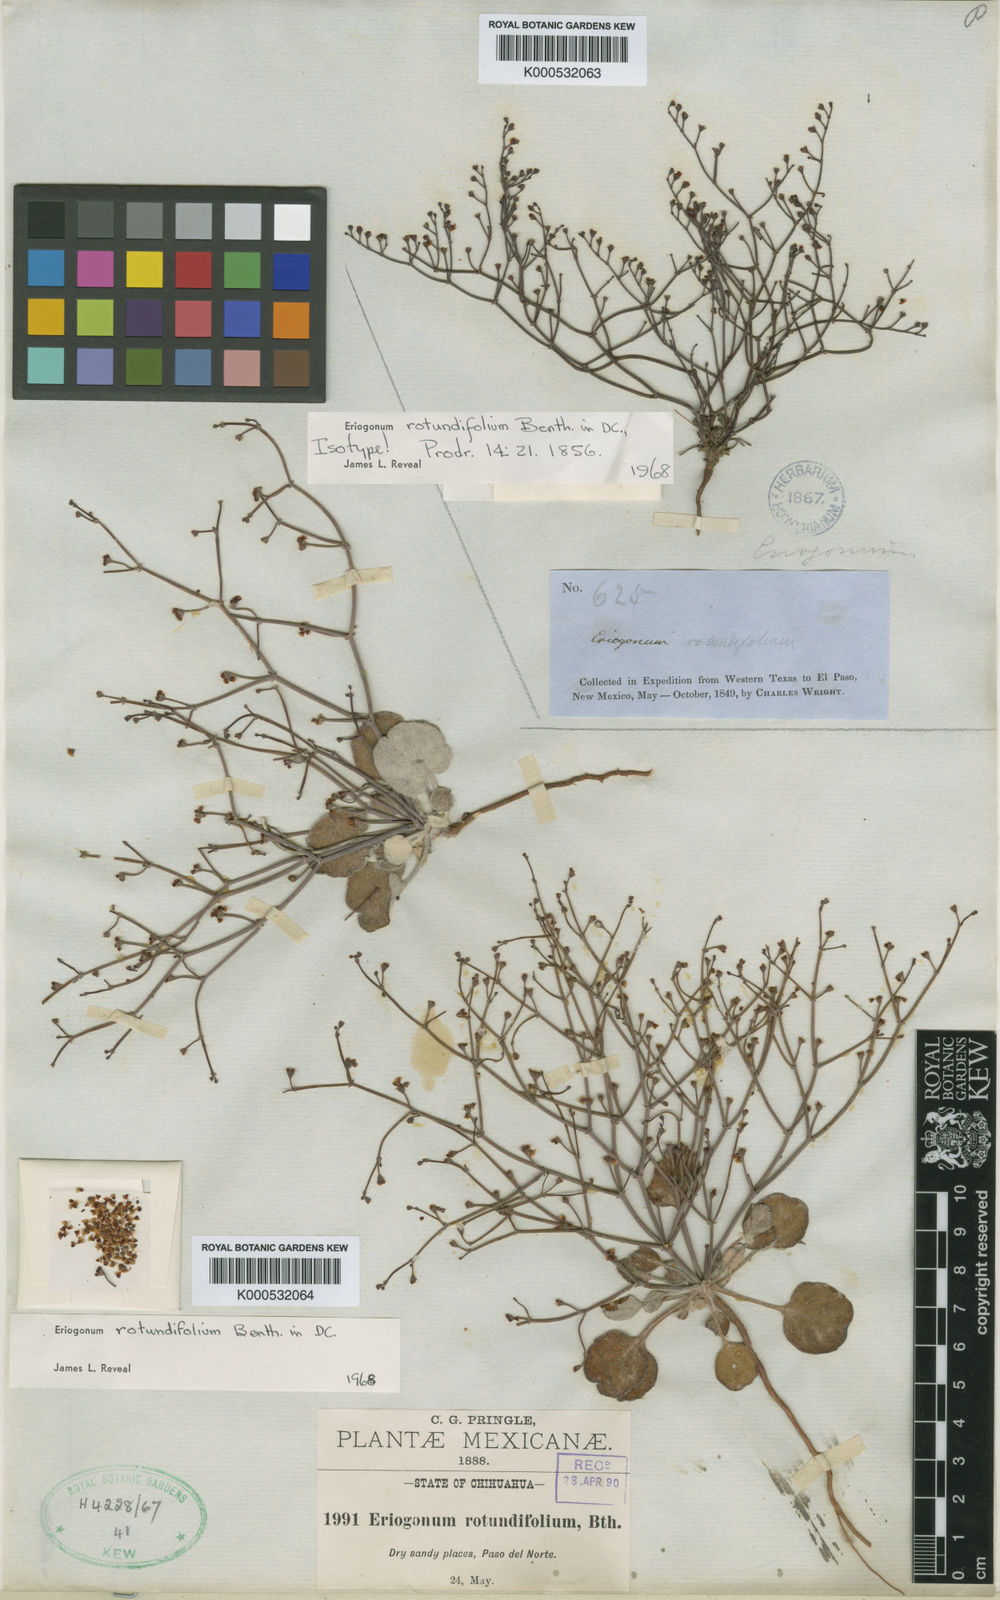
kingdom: Plantae
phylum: Tracheophyta
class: Magnoliopsida
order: Caryophyllales
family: Polygonaceae
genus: Eriogonum
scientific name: Eriogonum rotundifolium
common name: Round-leaf wild buckwheat
